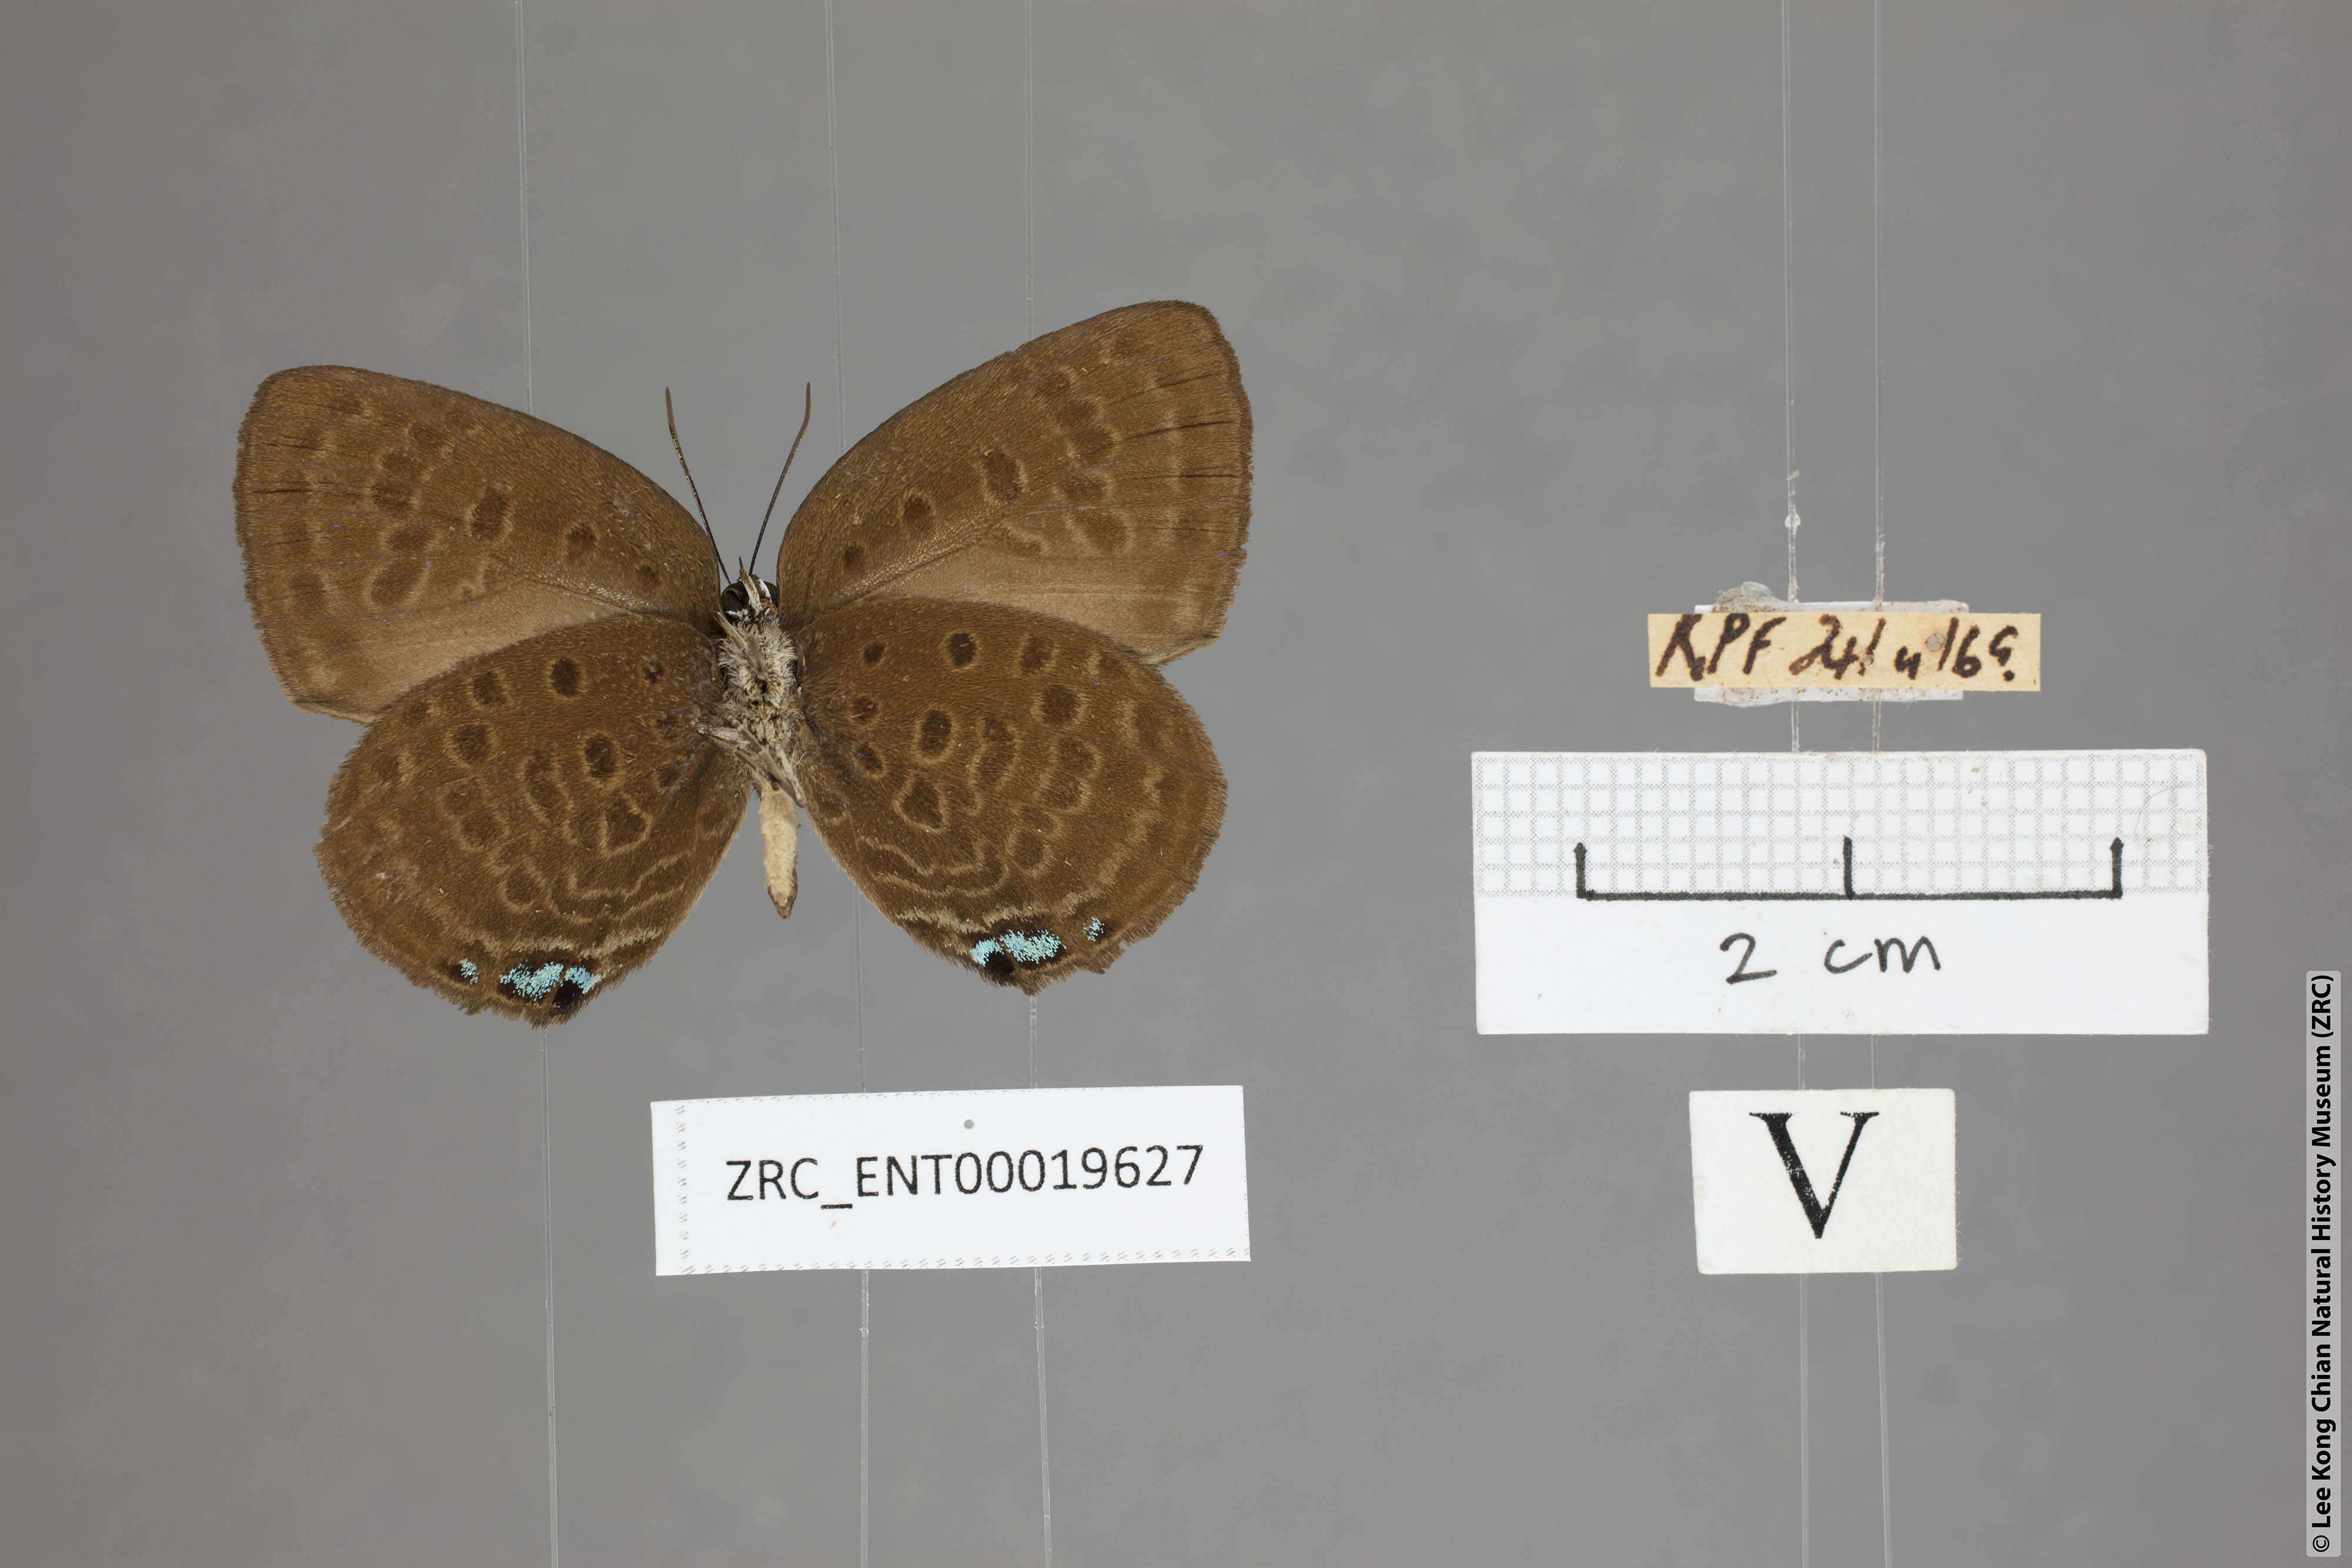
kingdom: Animalia
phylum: Arthropoda
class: Insecta
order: Lepidoptera
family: Lycaenidae
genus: Arhopala
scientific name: Arhopala major
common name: Major yellow oakblue
